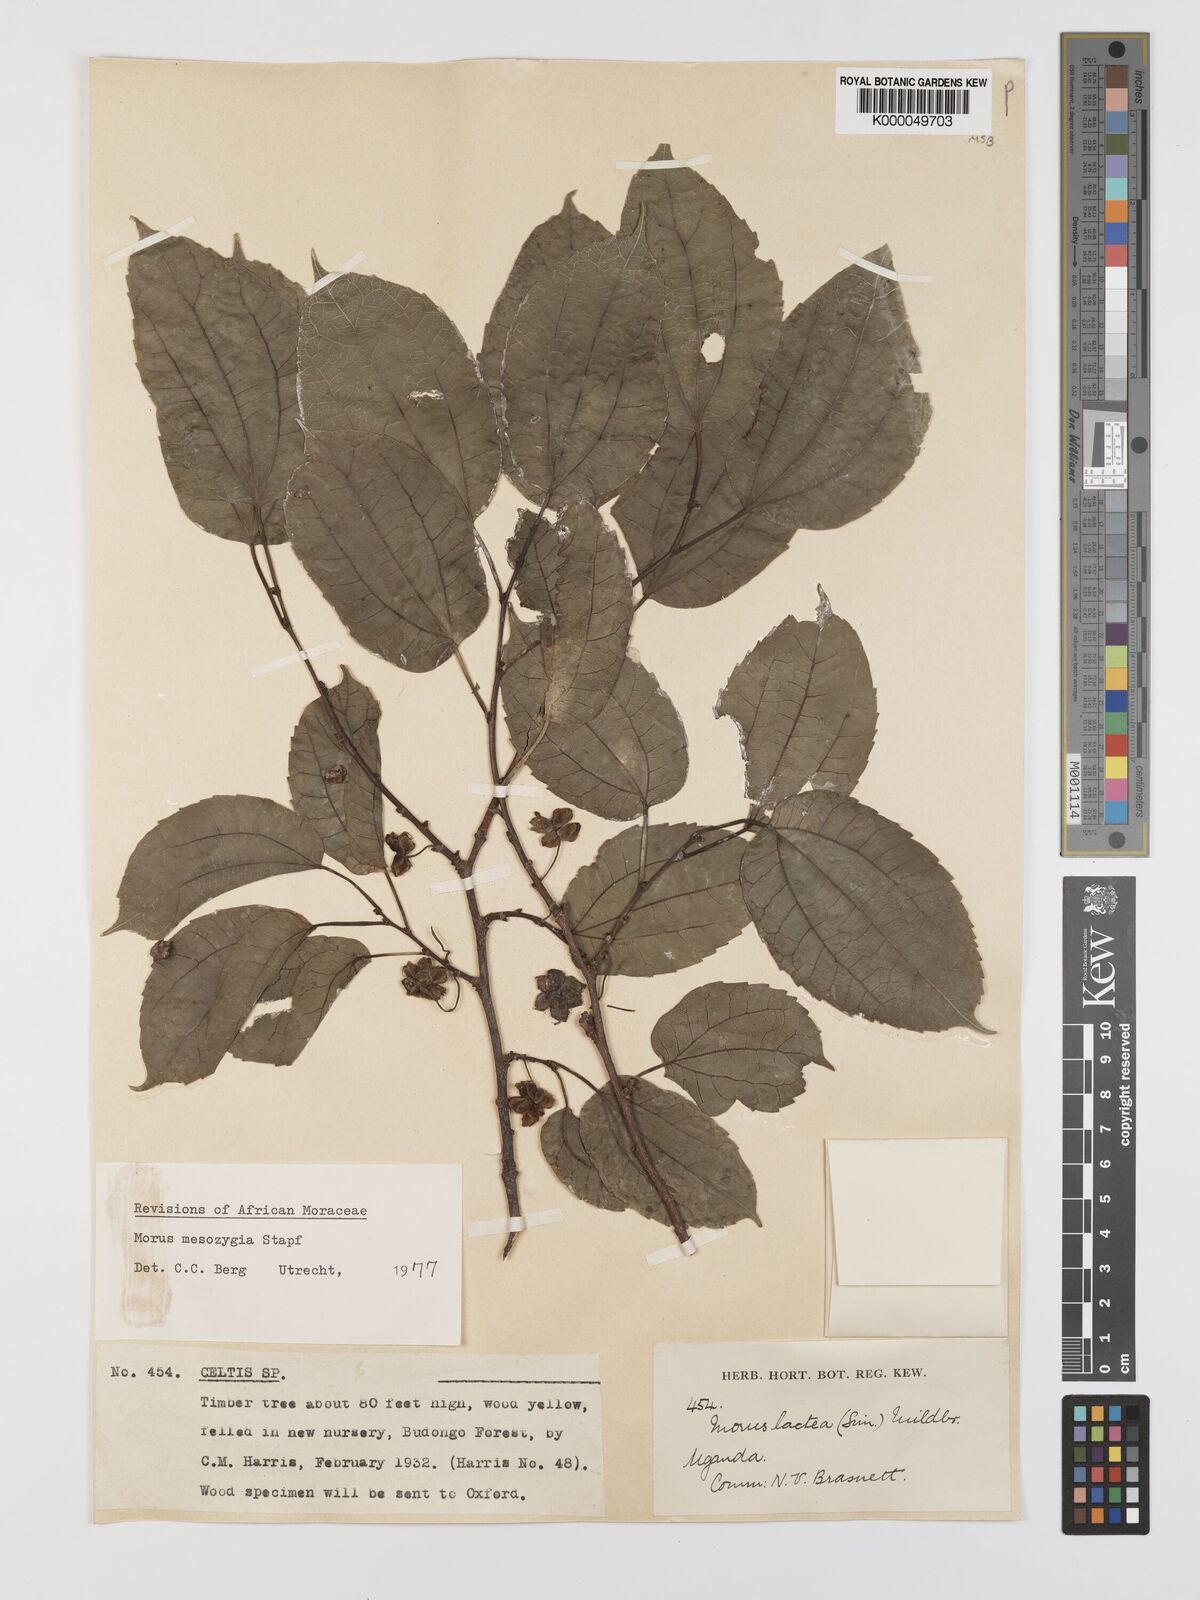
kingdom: Plantae
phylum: Tracheophyta
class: Magnoliopsida
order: Rosales
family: Moraceae
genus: Afromorus
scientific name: Afromorus mesozygia
